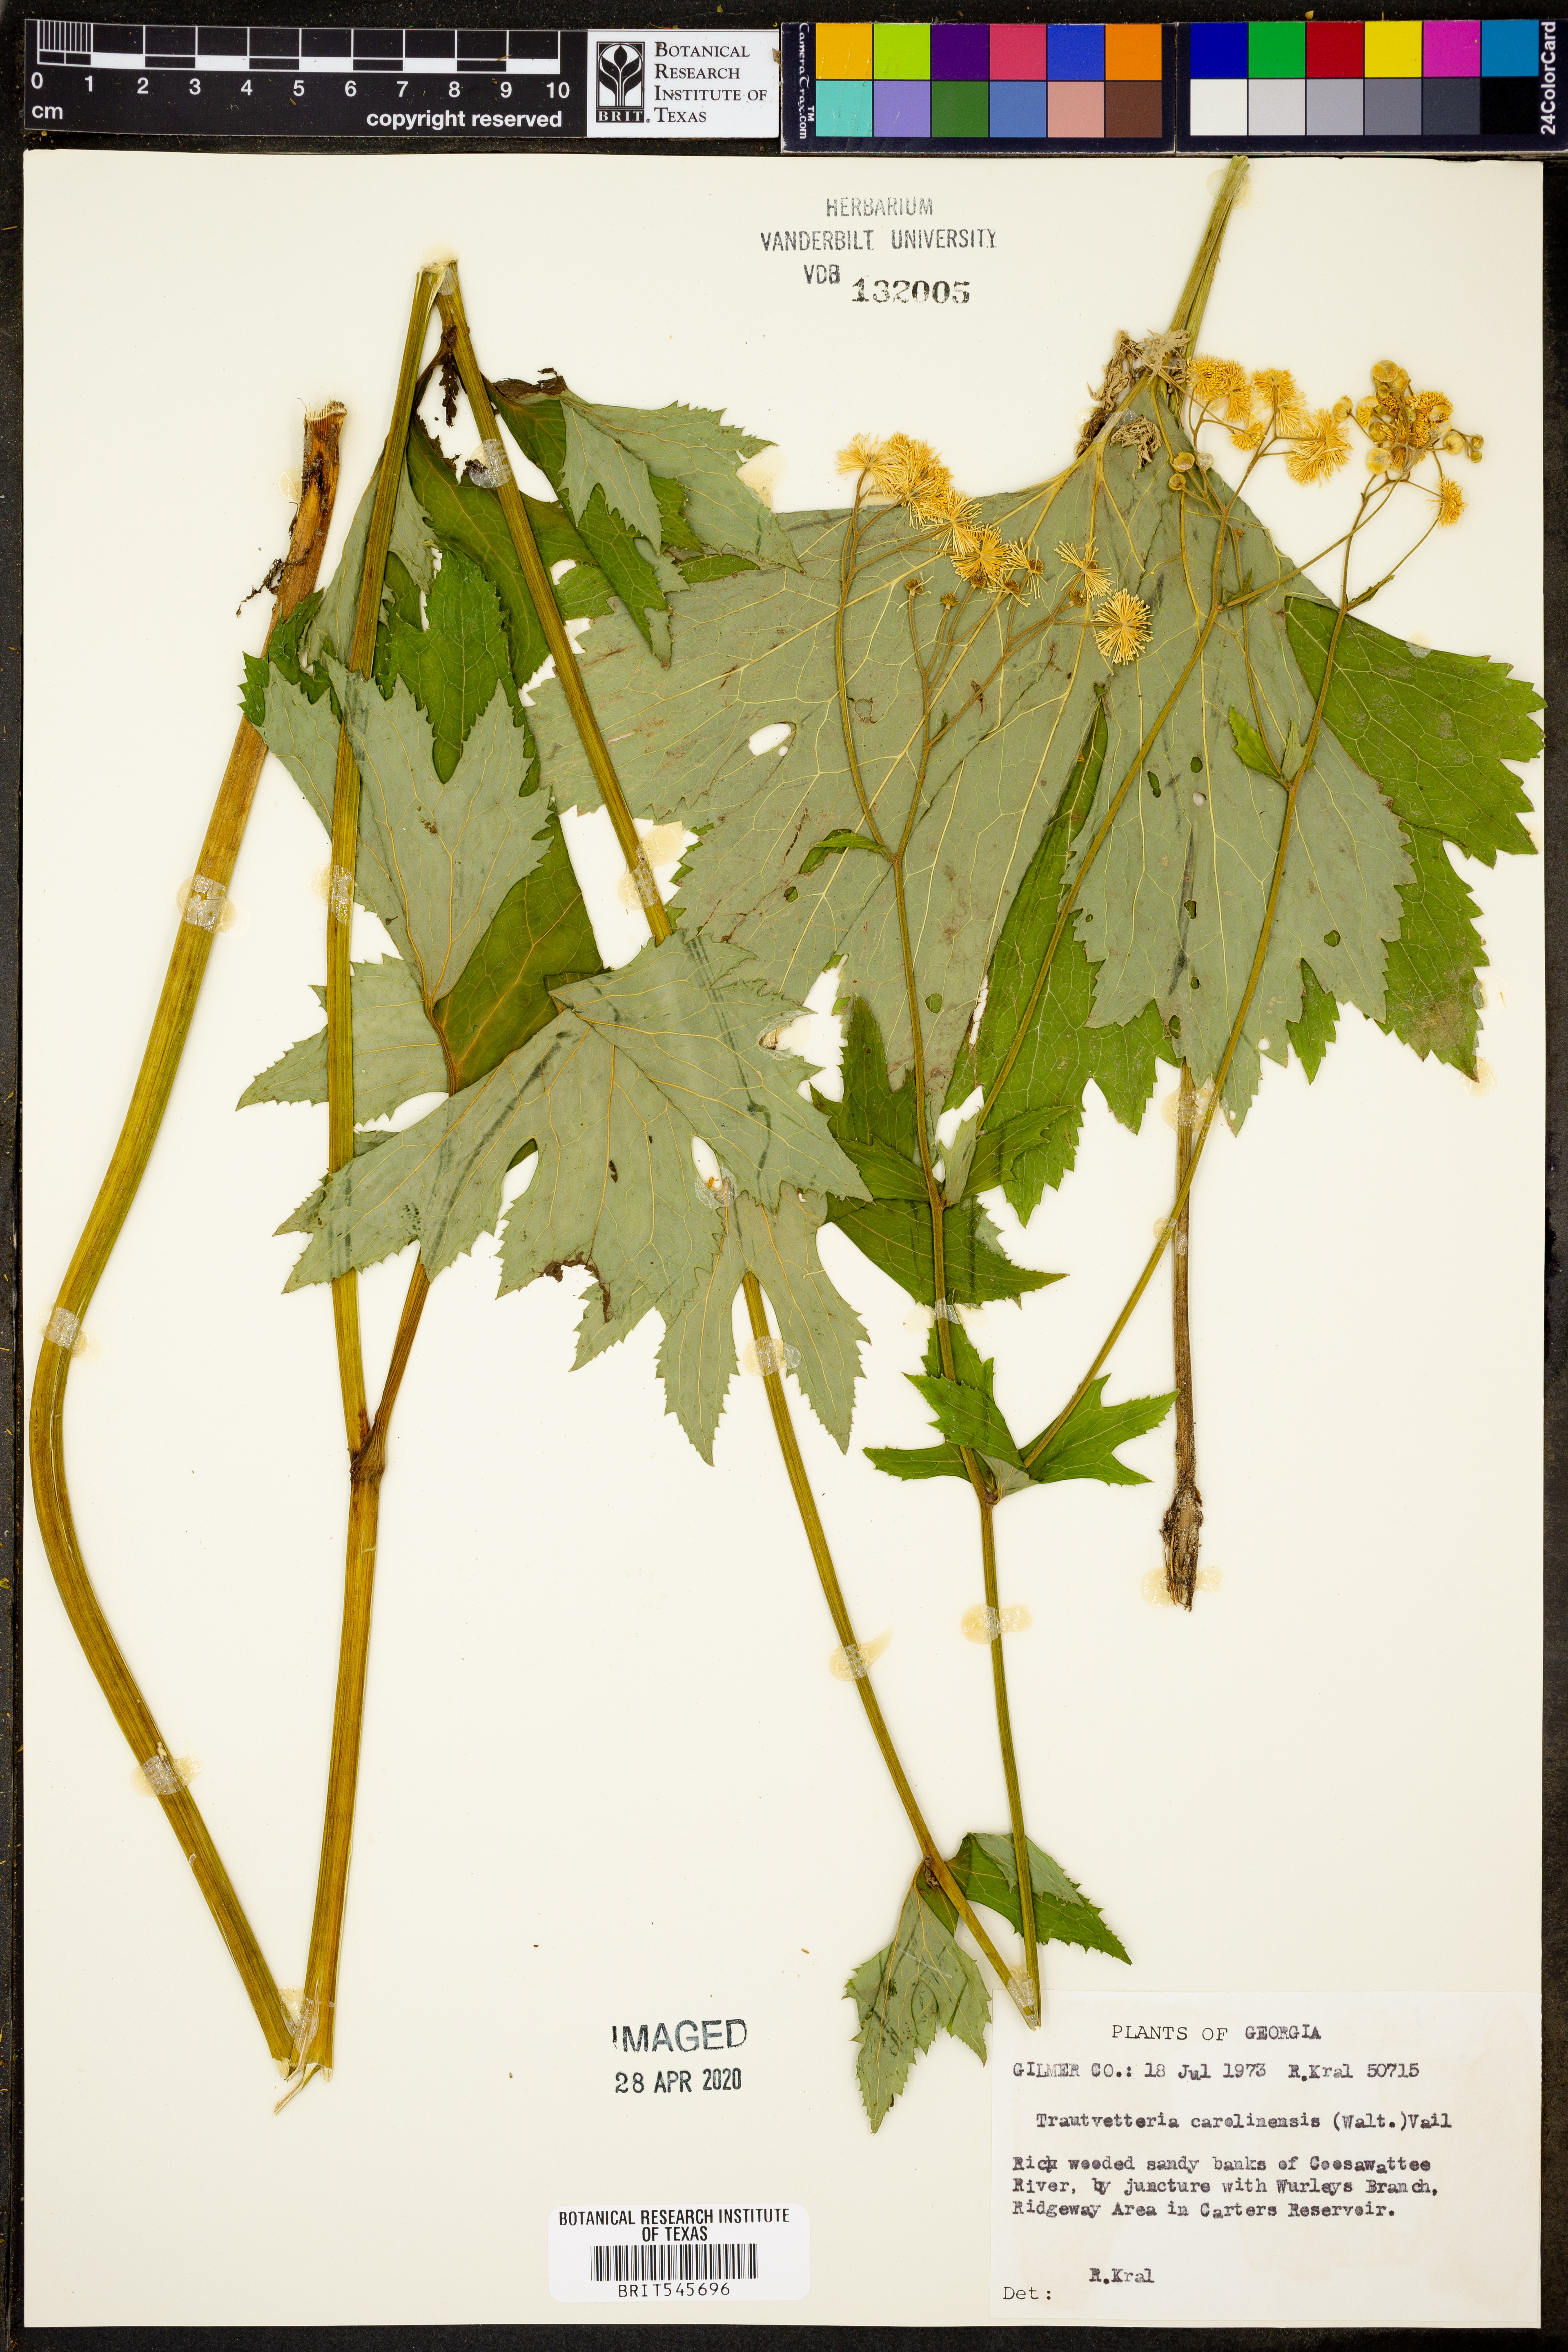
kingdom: Plantae
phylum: Tracheophyta
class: Magnoliopsida
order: Ranunculales
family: Ranunculaceae
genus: Trautvetteria
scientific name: Trautvetteria carolinensis
